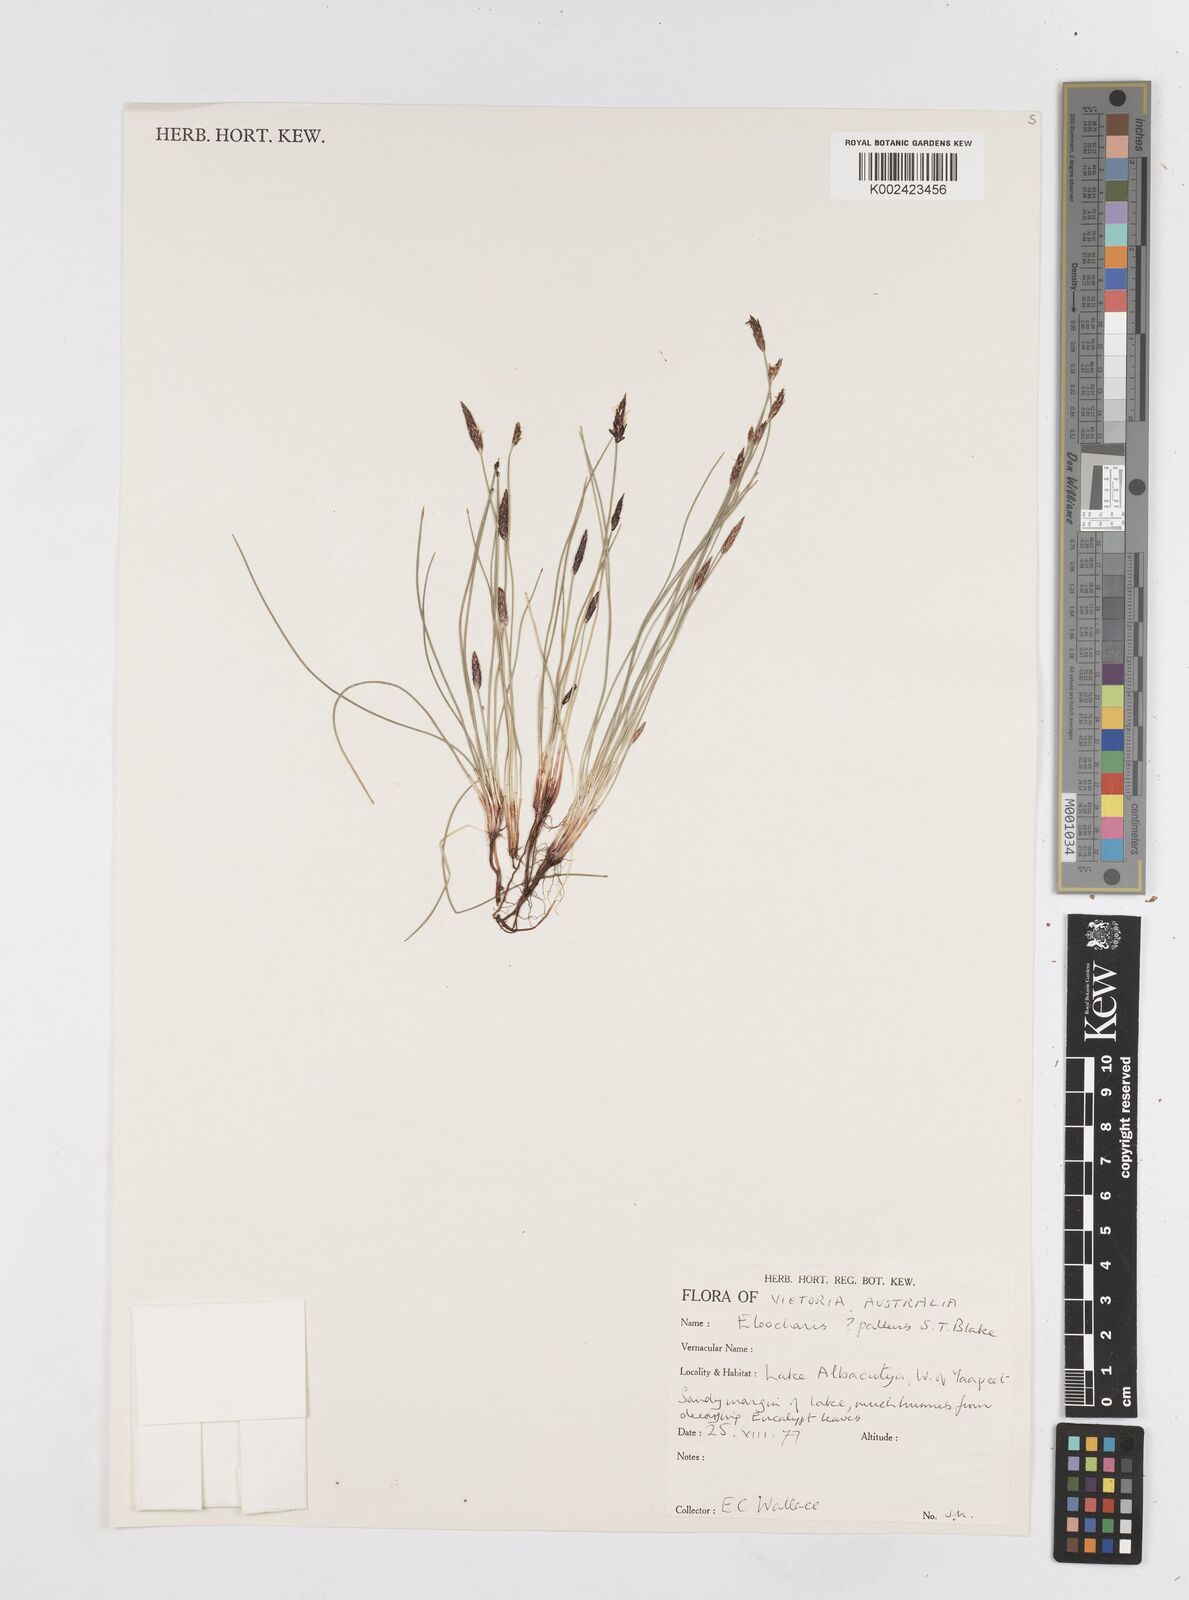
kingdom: Plantae
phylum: Tracheophyta
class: Liliopsida
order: Poales
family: Cyperaceae
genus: Eleocharis
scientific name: Eleocharis acuta
